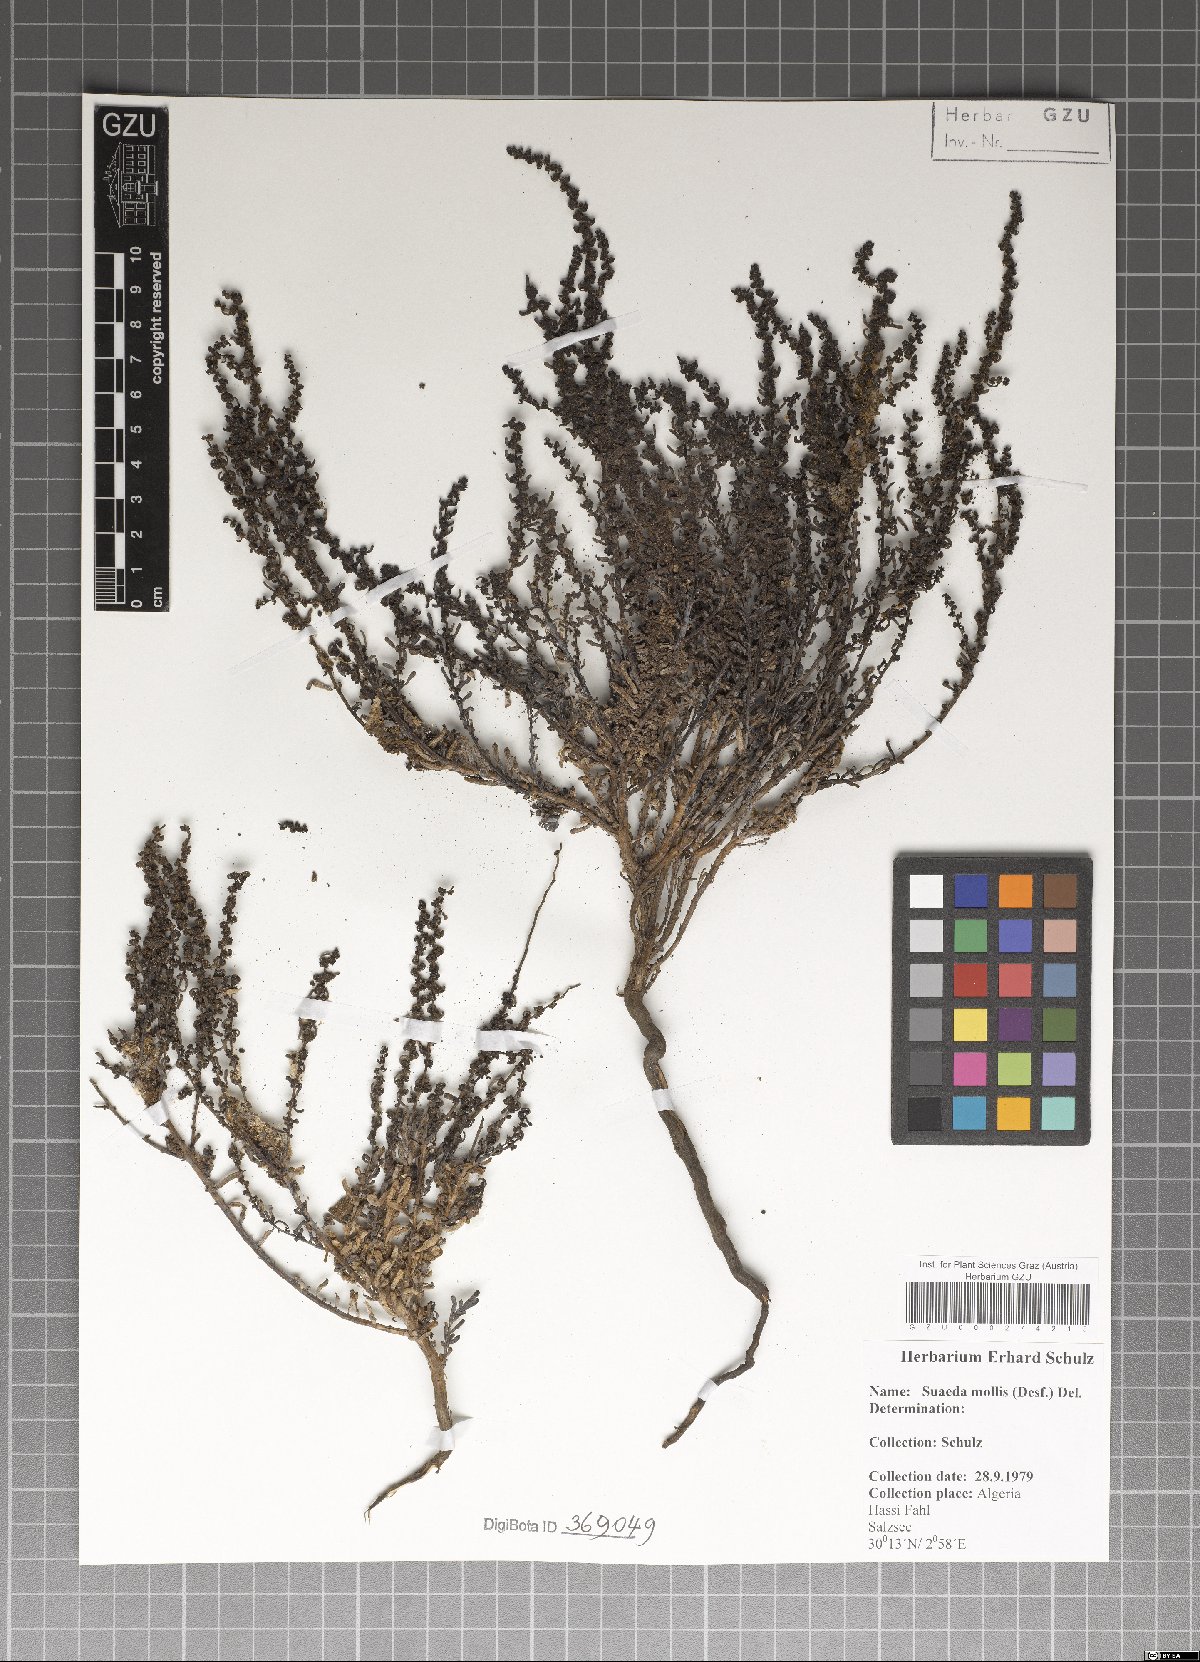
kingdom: Plantae
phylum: Tracheophyta
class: Magnoliopsida
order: Caryophyllales
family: Amaranthaceae
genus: Suaeda
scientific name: Suaeda vermiculata
